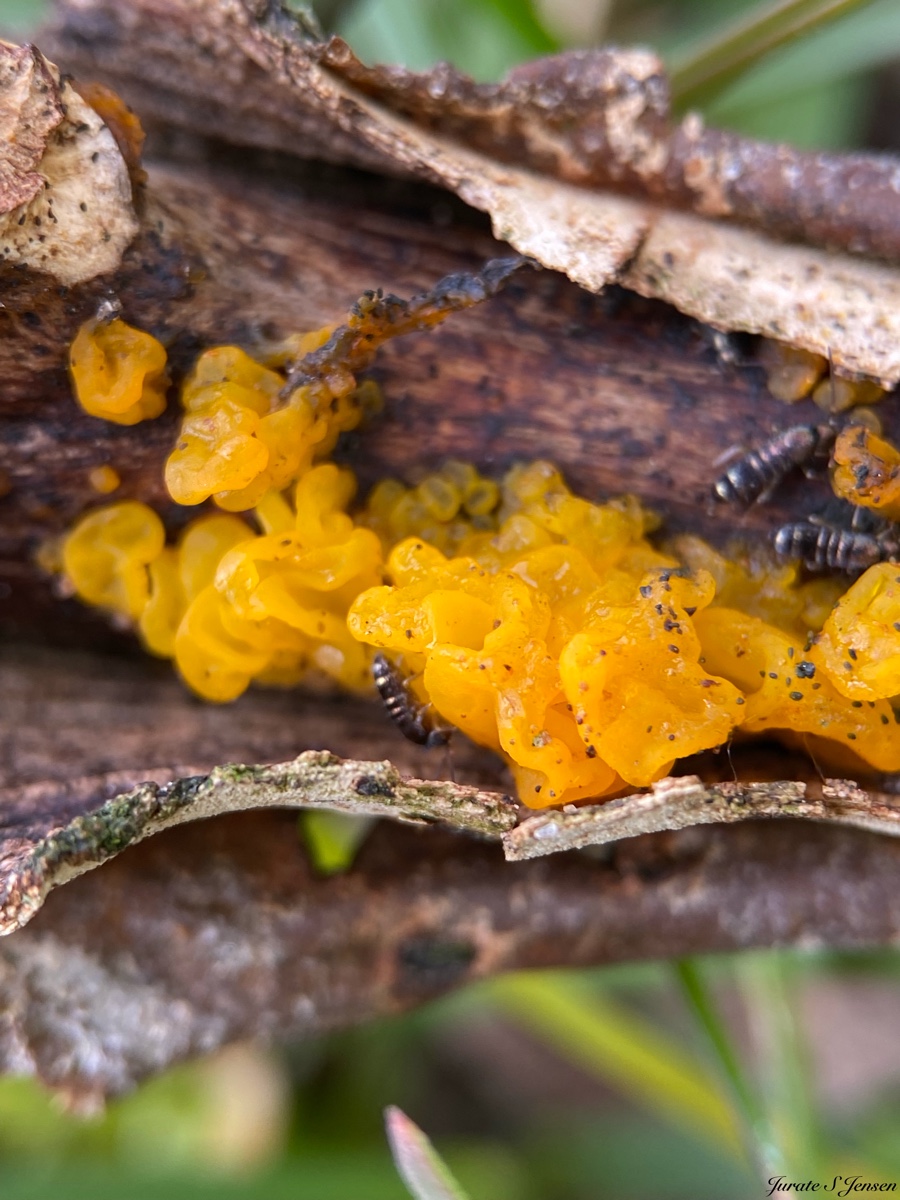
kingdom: Fungi
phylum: Basidiomycota
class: Tremellomycetes
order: Tremellales
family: Tremellaceae
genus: Tremella
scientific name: Tremella mesenterica
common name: gul bævresvamp
